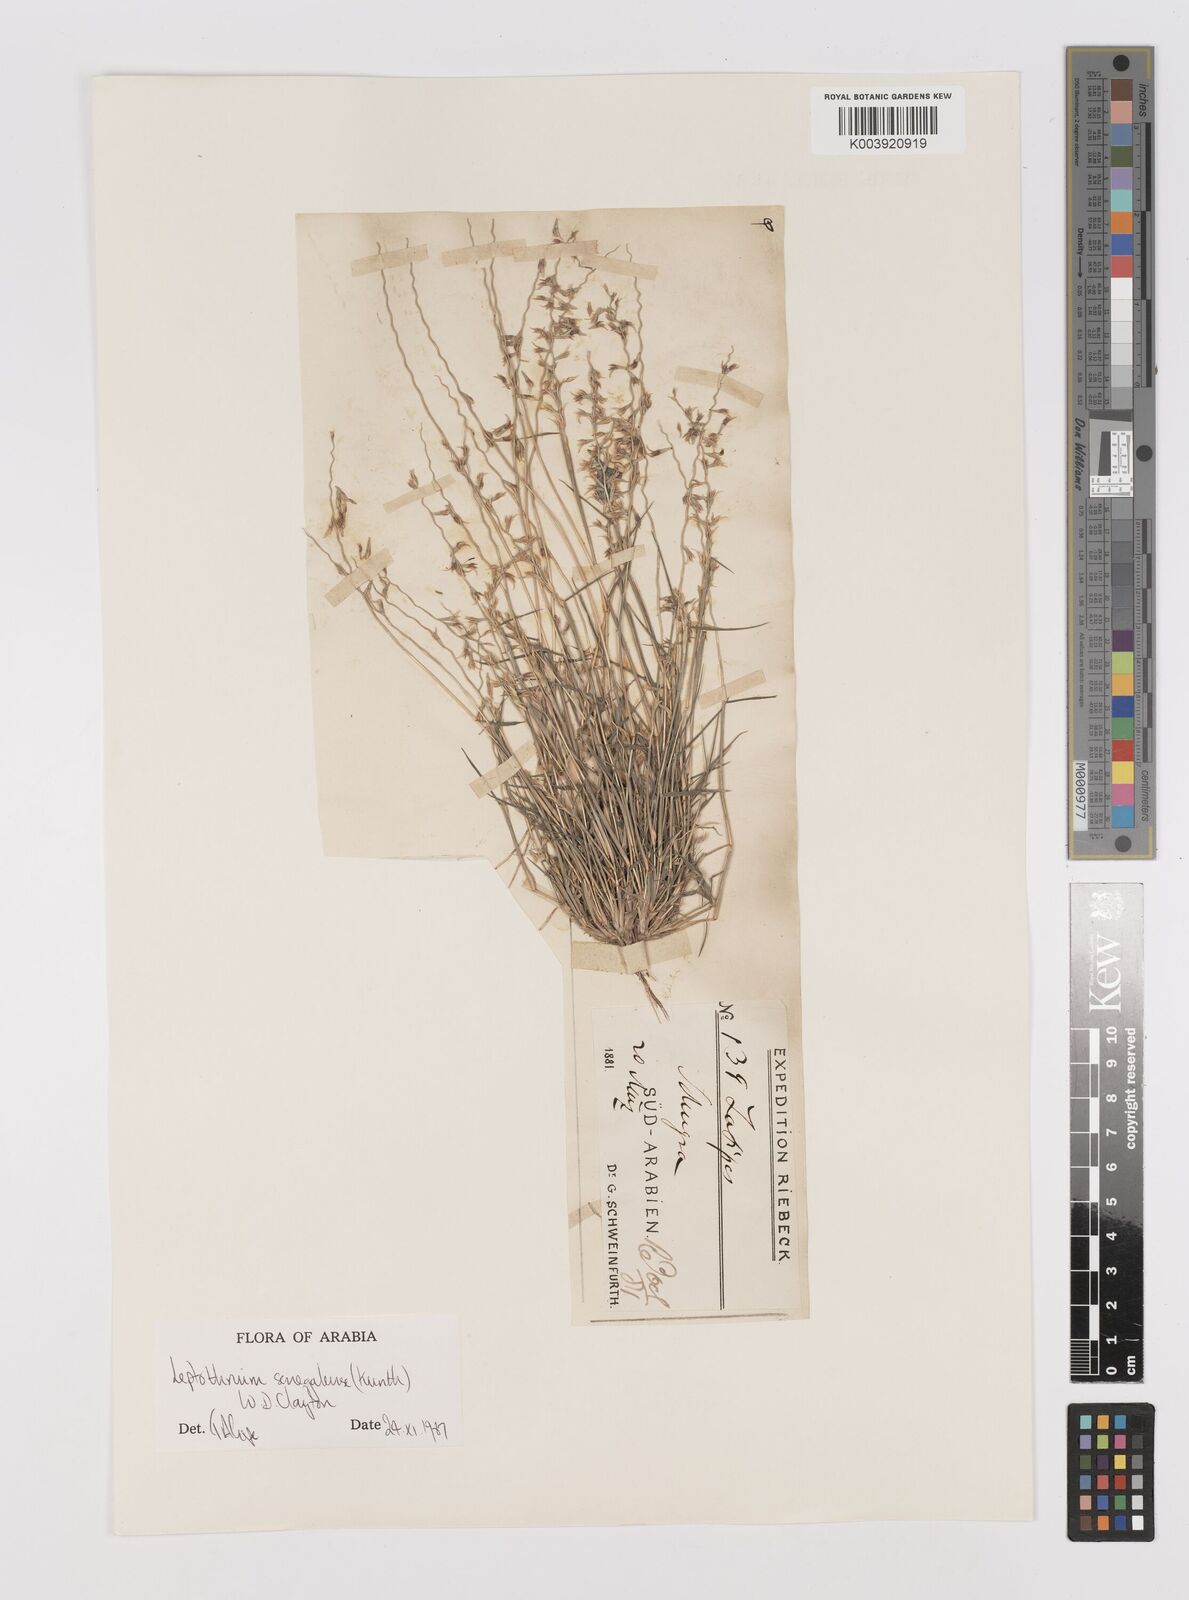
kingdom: Plantae
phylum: Tracheophyta
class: Liliopsida
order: Poales
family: Poaceae
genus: Leptothrium
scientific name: Leptothrium senegalense
